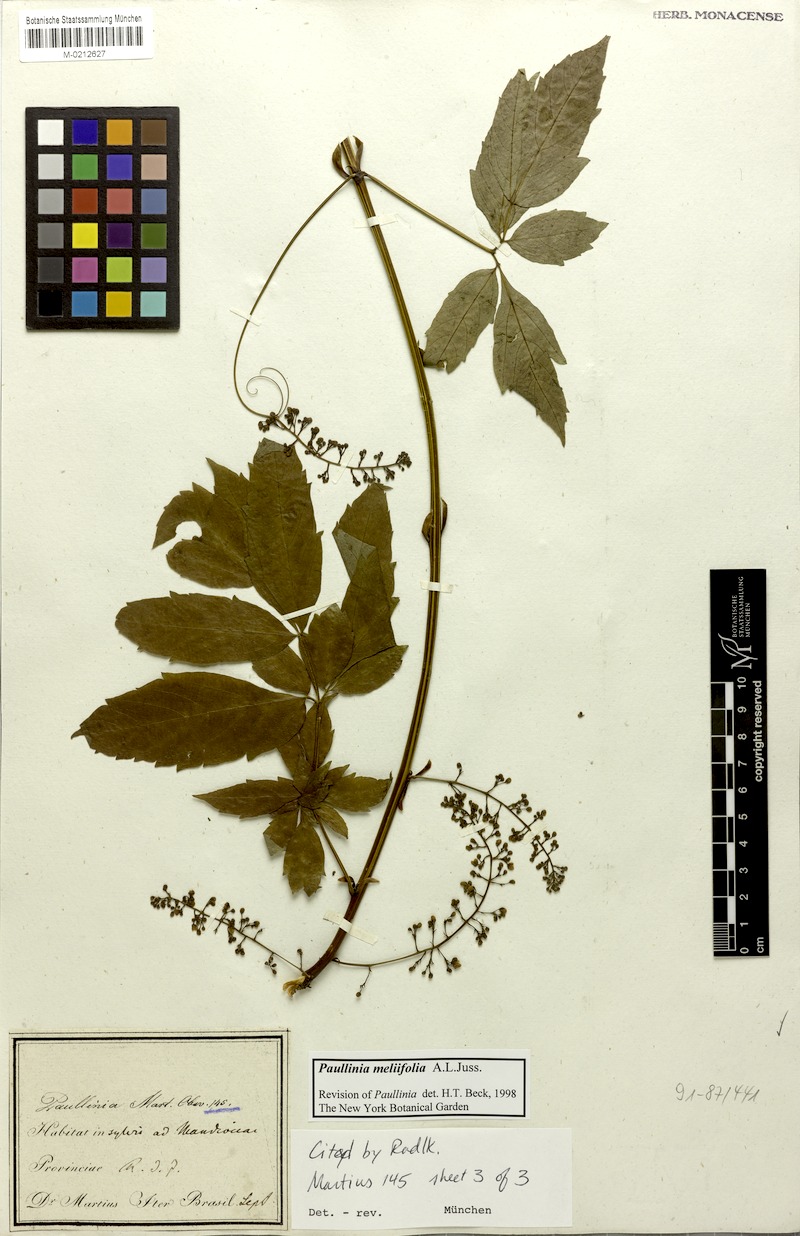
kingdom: Plantae
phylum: Tracheophyta
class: Magnoliopsida
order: Sapindales
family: Sapindaceae
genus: Paullinia
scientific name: Paullinia meliifolia
